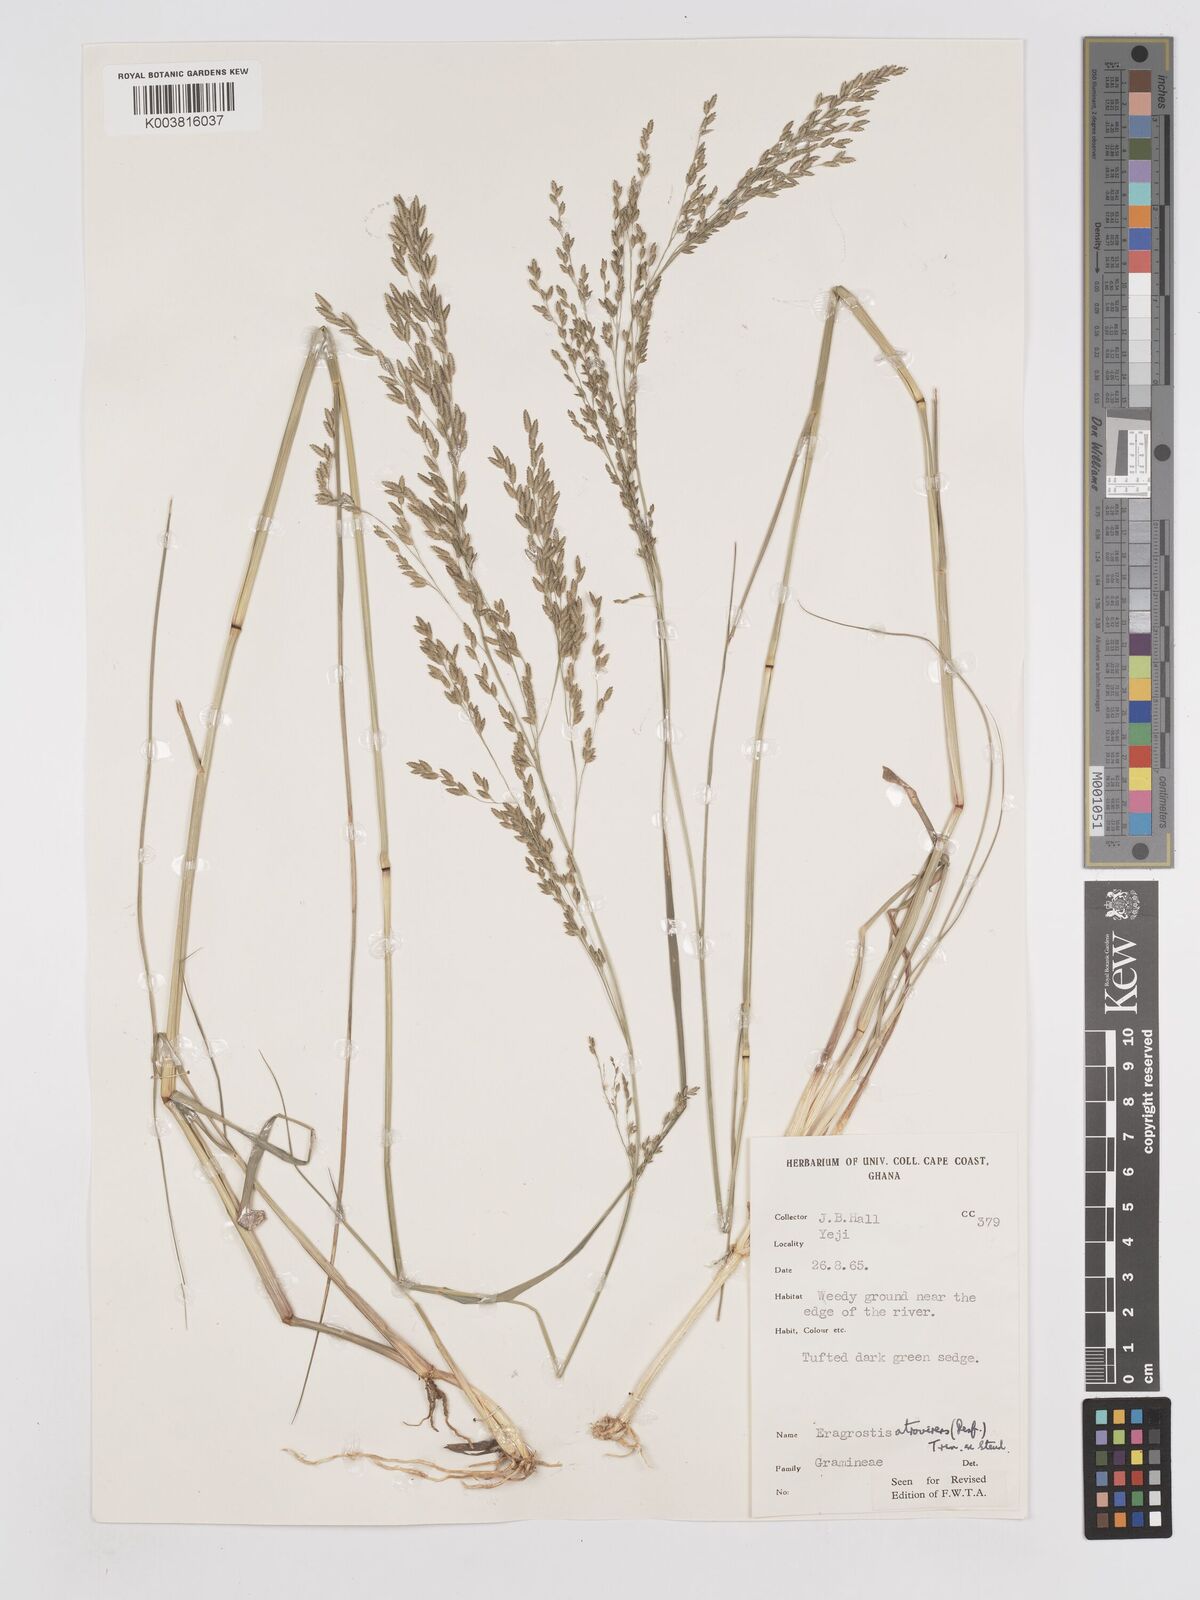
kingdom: Plantae
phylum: Tracheophyta
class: Liliopsida
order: Poales
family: Poaceae
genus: Eragrostis
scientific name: Eragrostis atrovirens
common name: Thalia lovegrass
